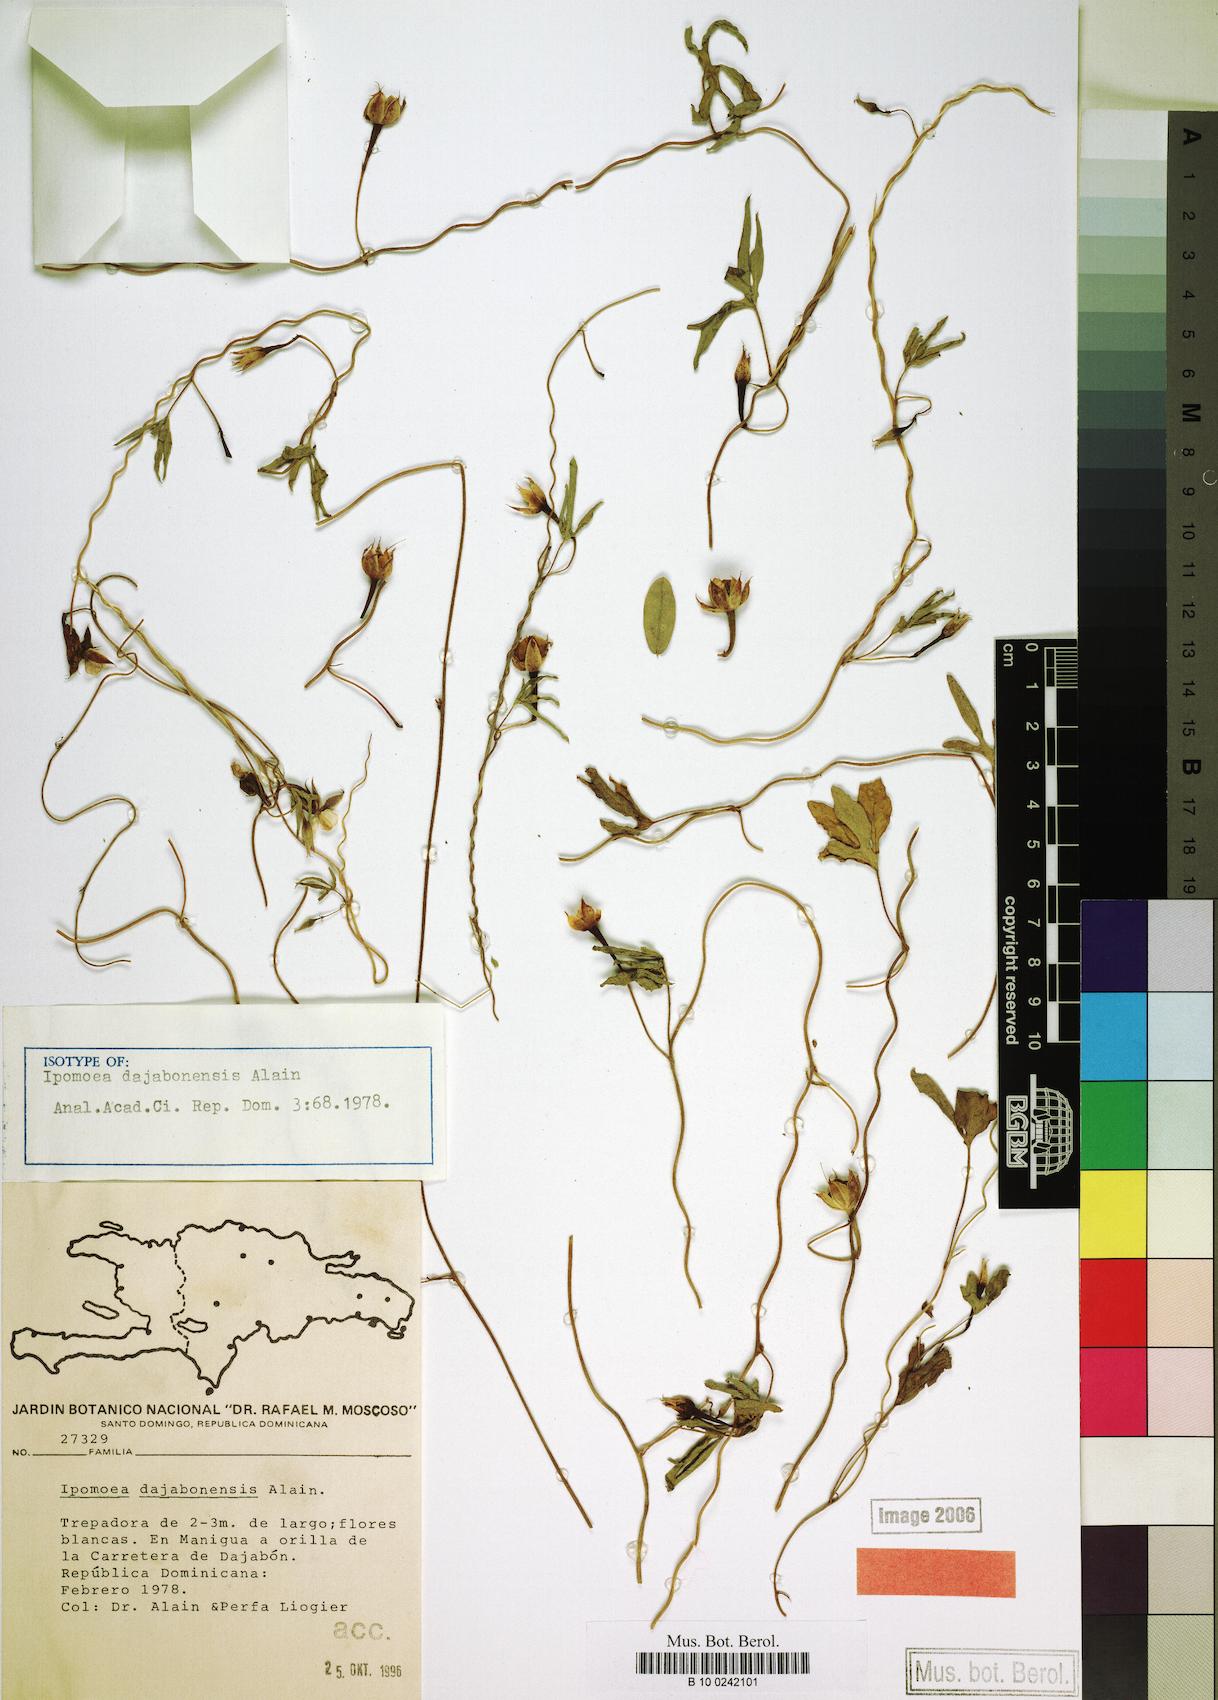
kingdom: Plantae
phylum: Tracheophyta
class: Magnoliopsida
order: Solanales
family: Convolvulaceae
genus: Ipomoea
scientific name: Ipomoea longeramosa
